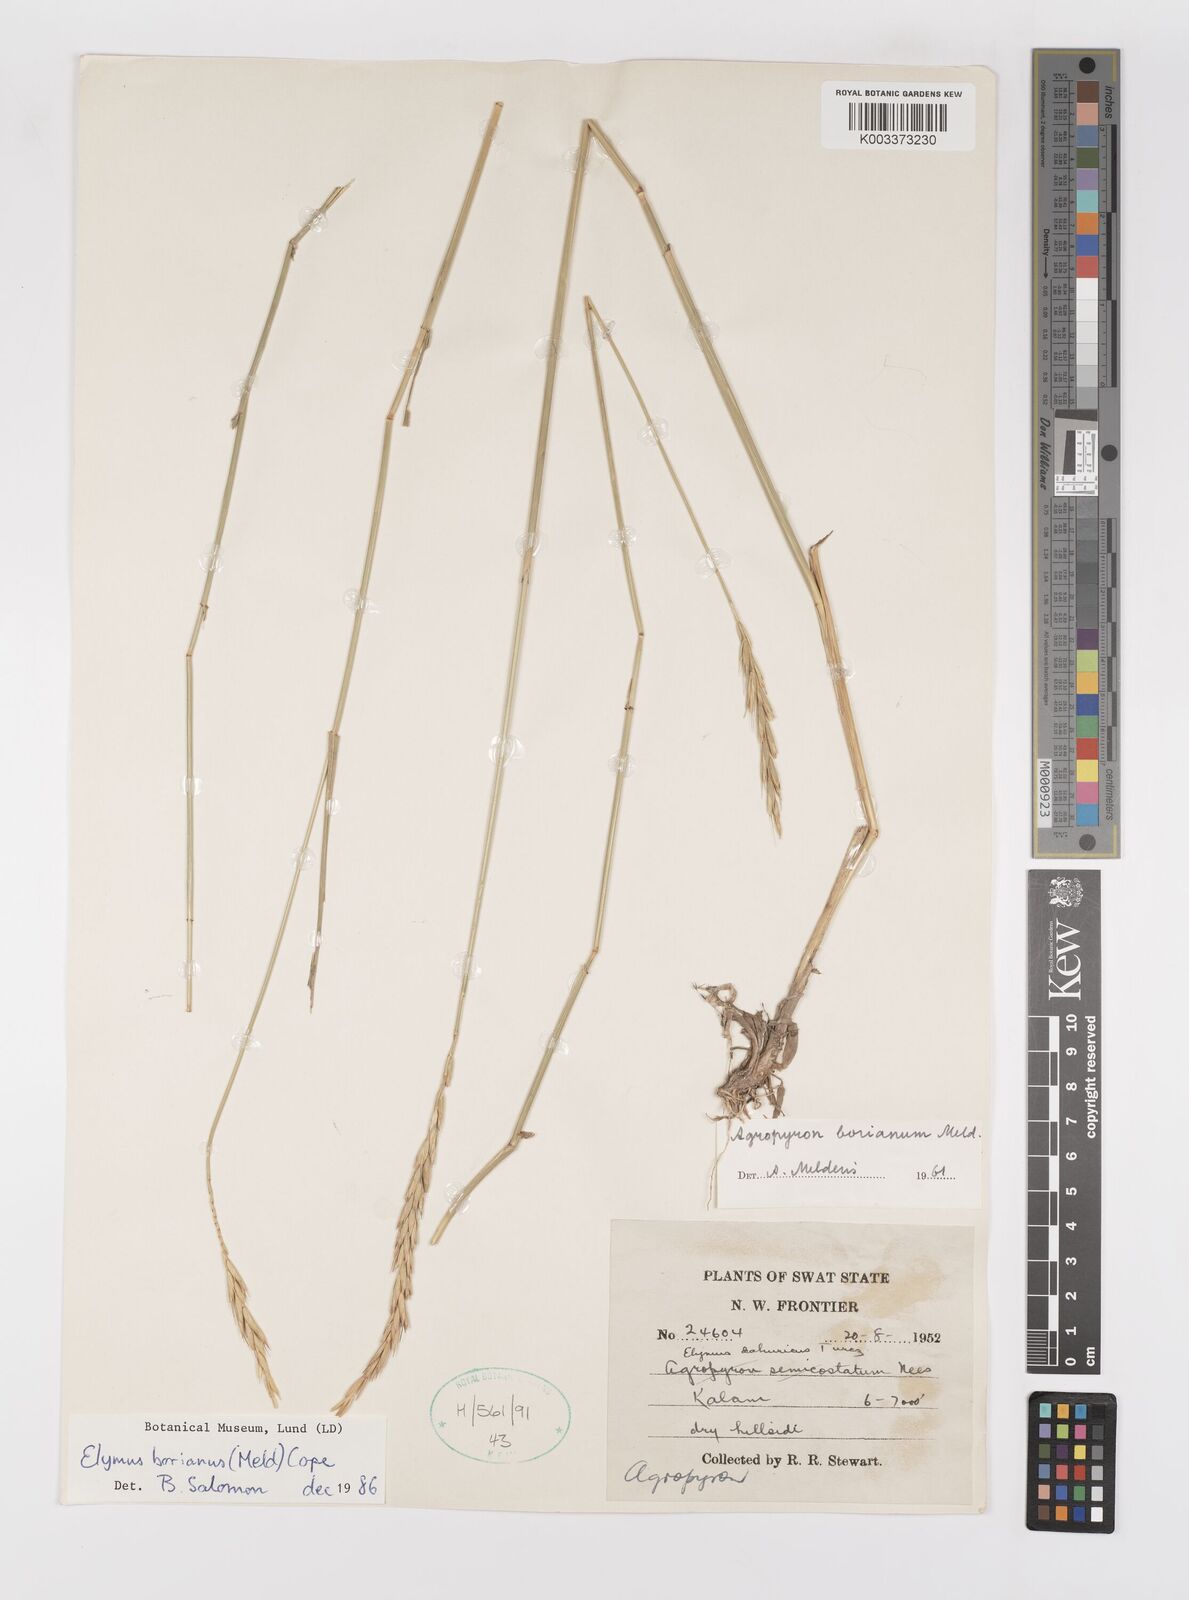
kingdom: Plantae
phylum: Tracheophyta
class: Liliopsida
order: Poales
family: Poaceae
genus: Elymus
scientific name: Elymus borianus
